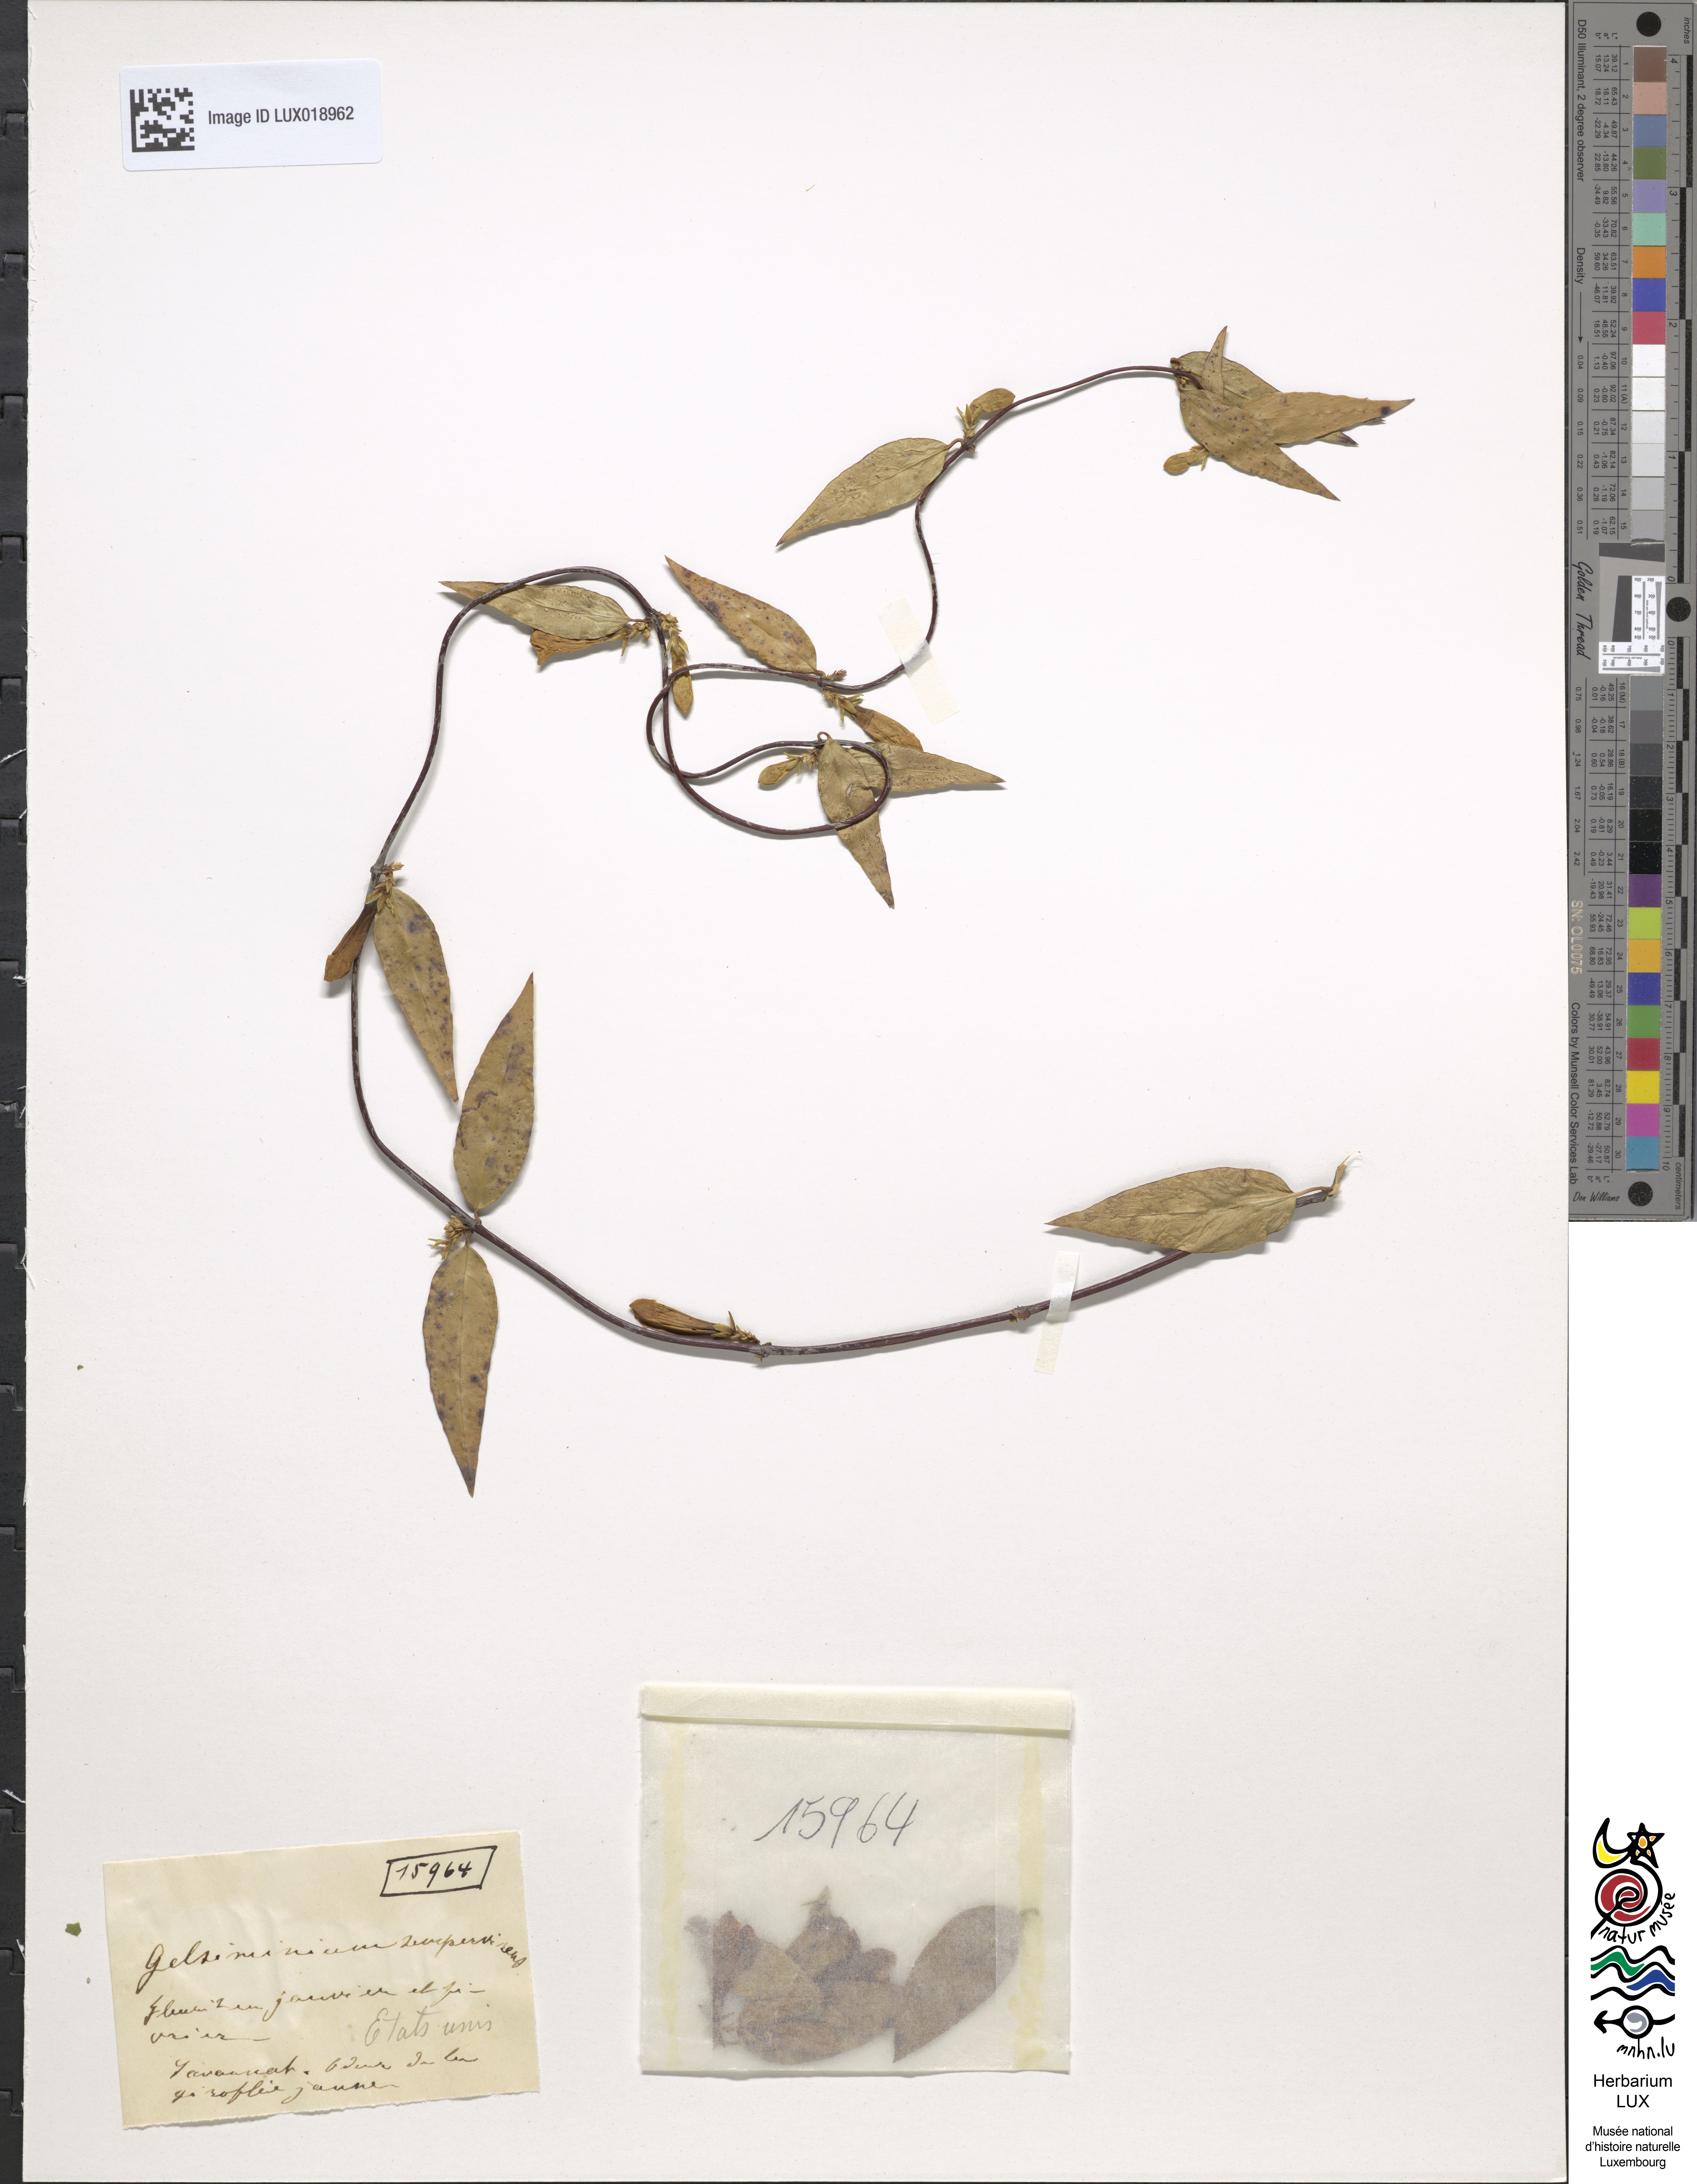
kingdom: Plantae
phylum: Tracheophyta
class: Magnoliopsida
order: Gentianales
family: Gelsemiaceae
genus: Gelsemium
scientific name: Gelsemium sempervirens
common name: Carolina-jasmine
